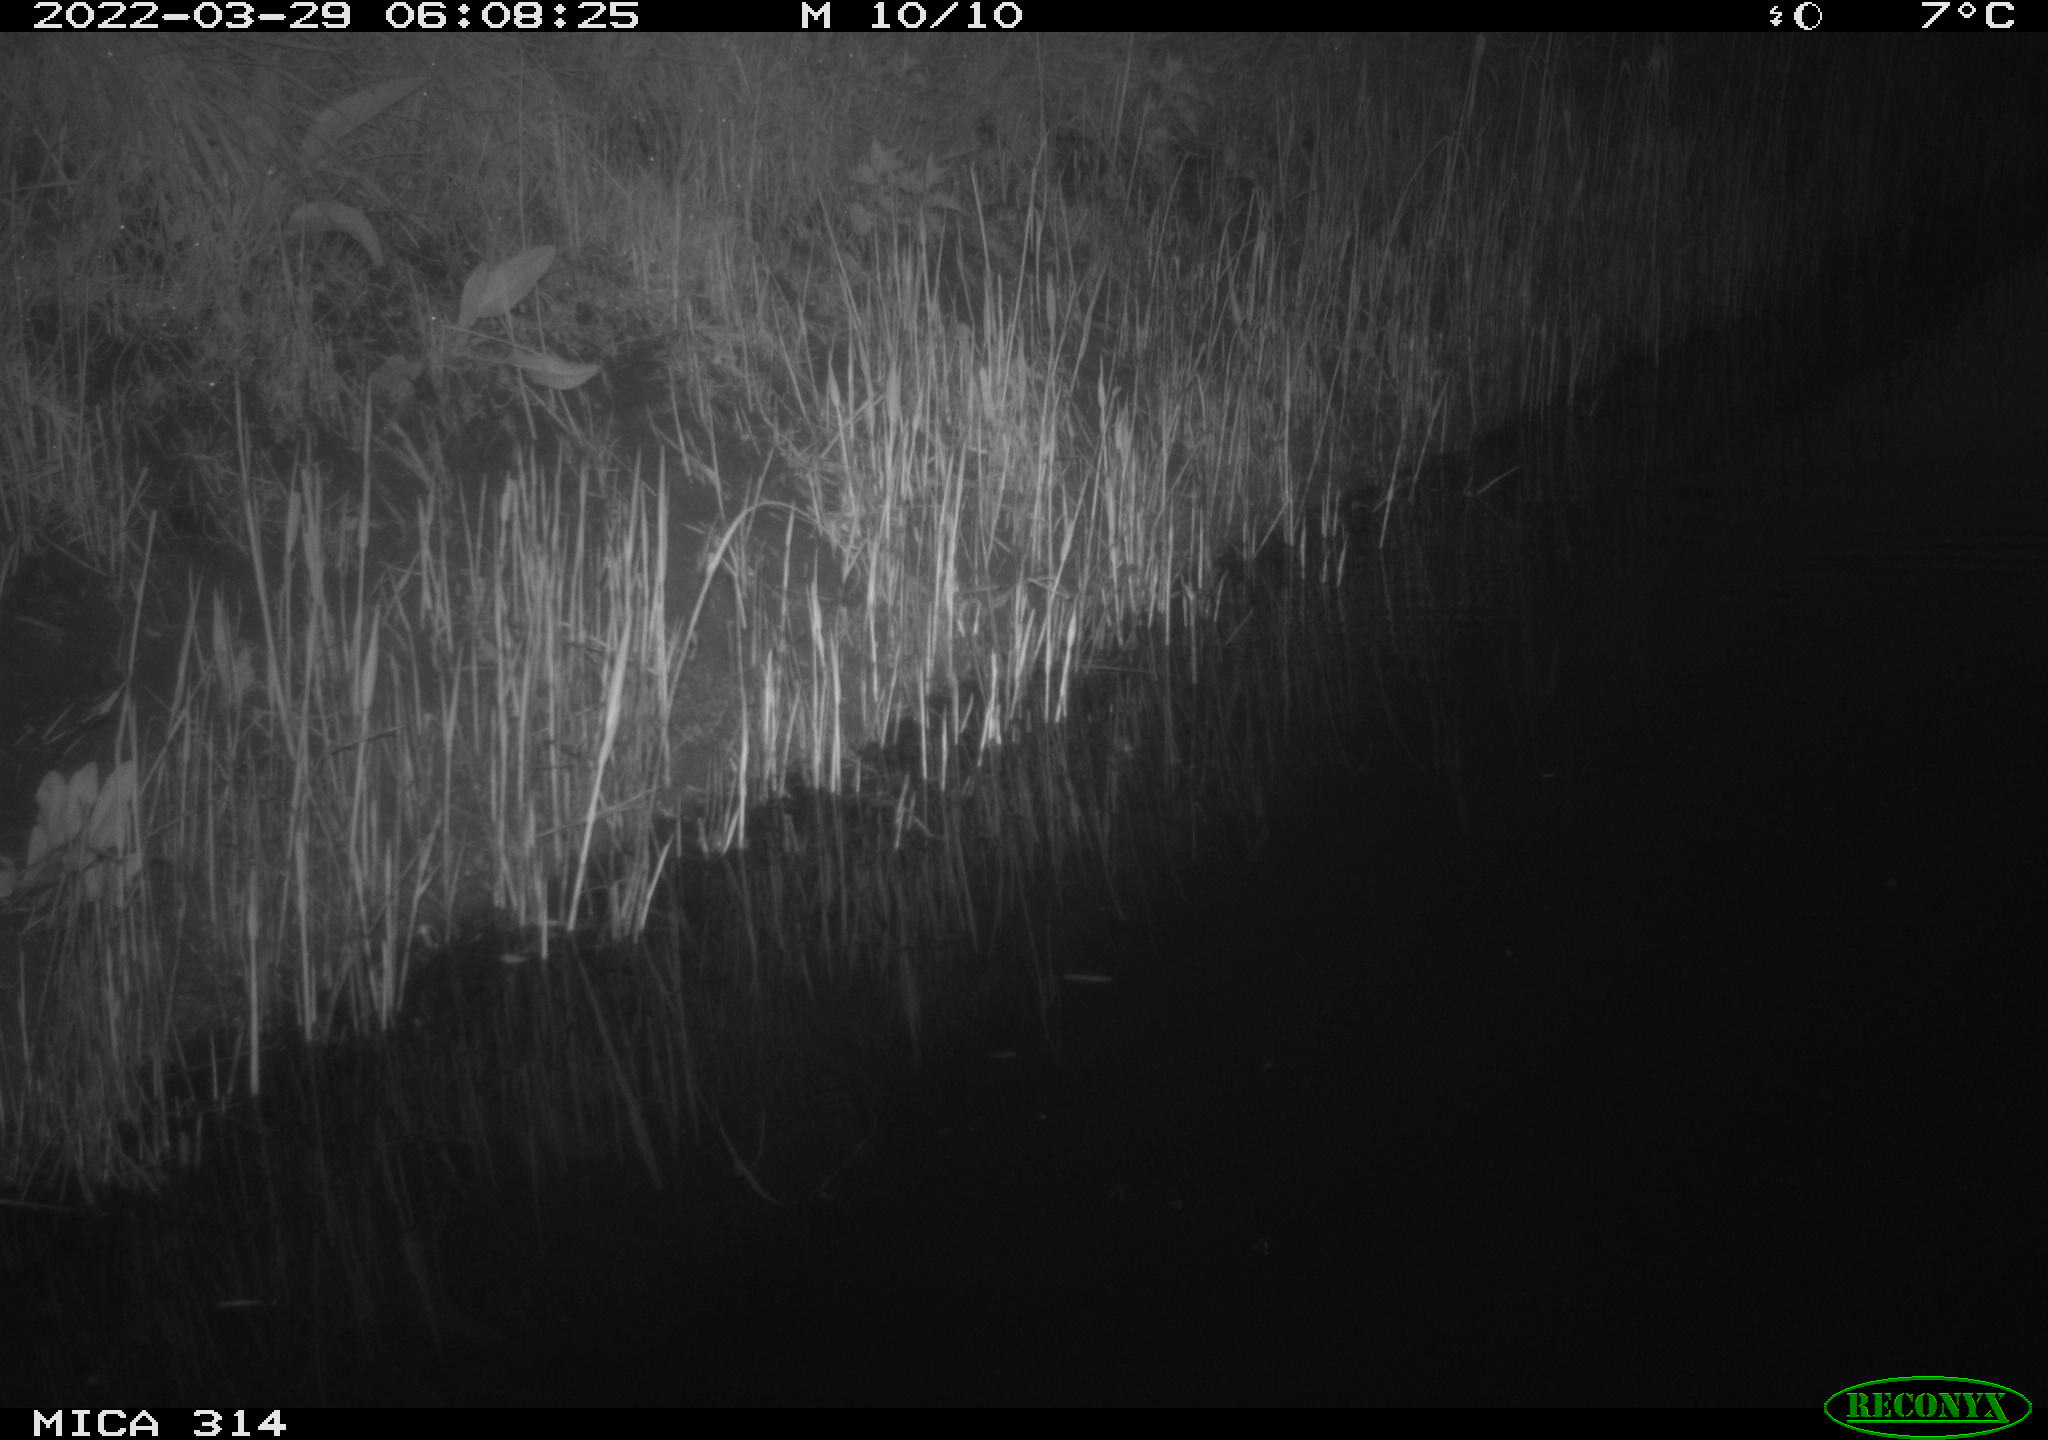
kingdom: Animalia
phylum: Chordata
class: Aves
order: Anseriformes
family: Anatidae
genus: Anas
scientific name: Anas platyrhynchos
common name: Mallard
